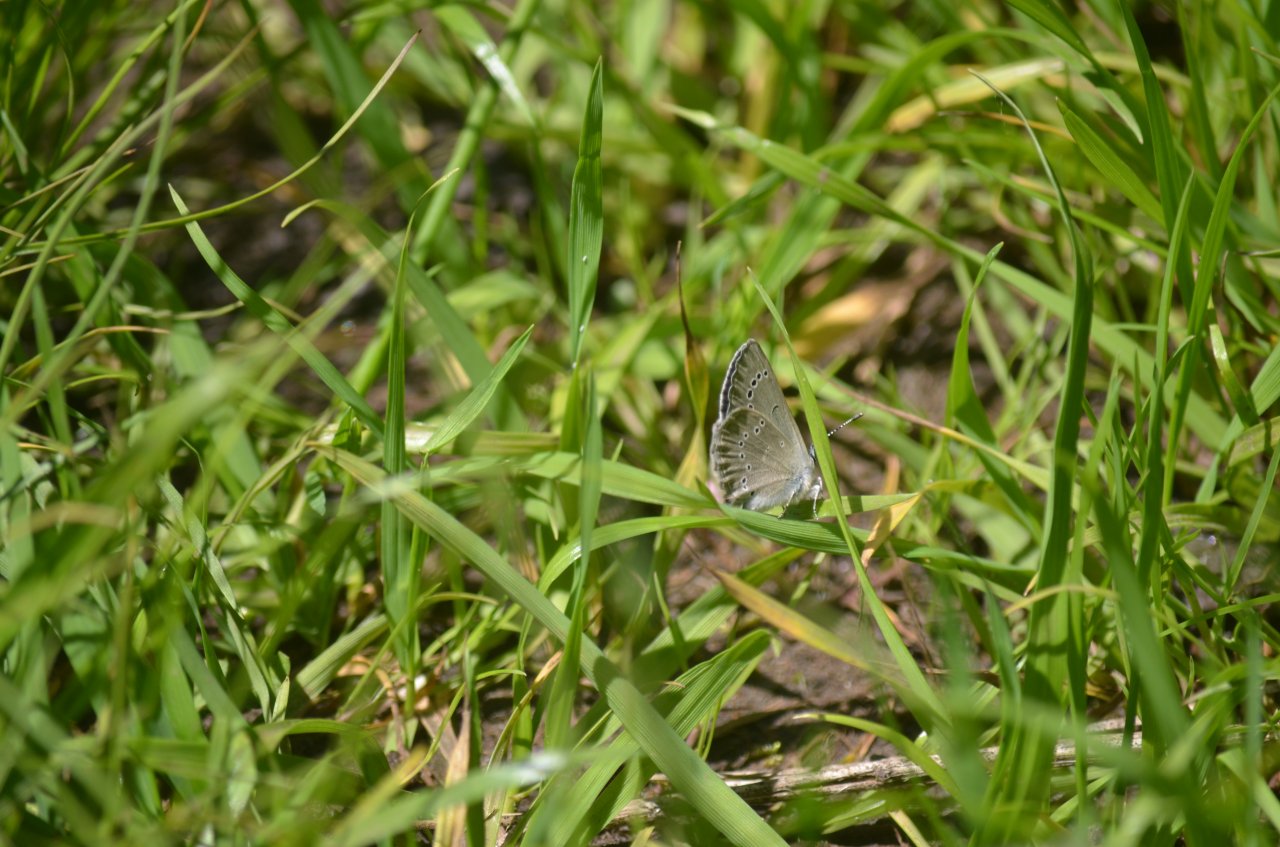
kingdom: Animalia
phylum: Arthropoda
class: Insecta
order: Lepidoptera
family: Lycaenidae
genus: Glaucopsyche
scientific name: Glaucopsyche lygdamus
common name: Silvery Blue
